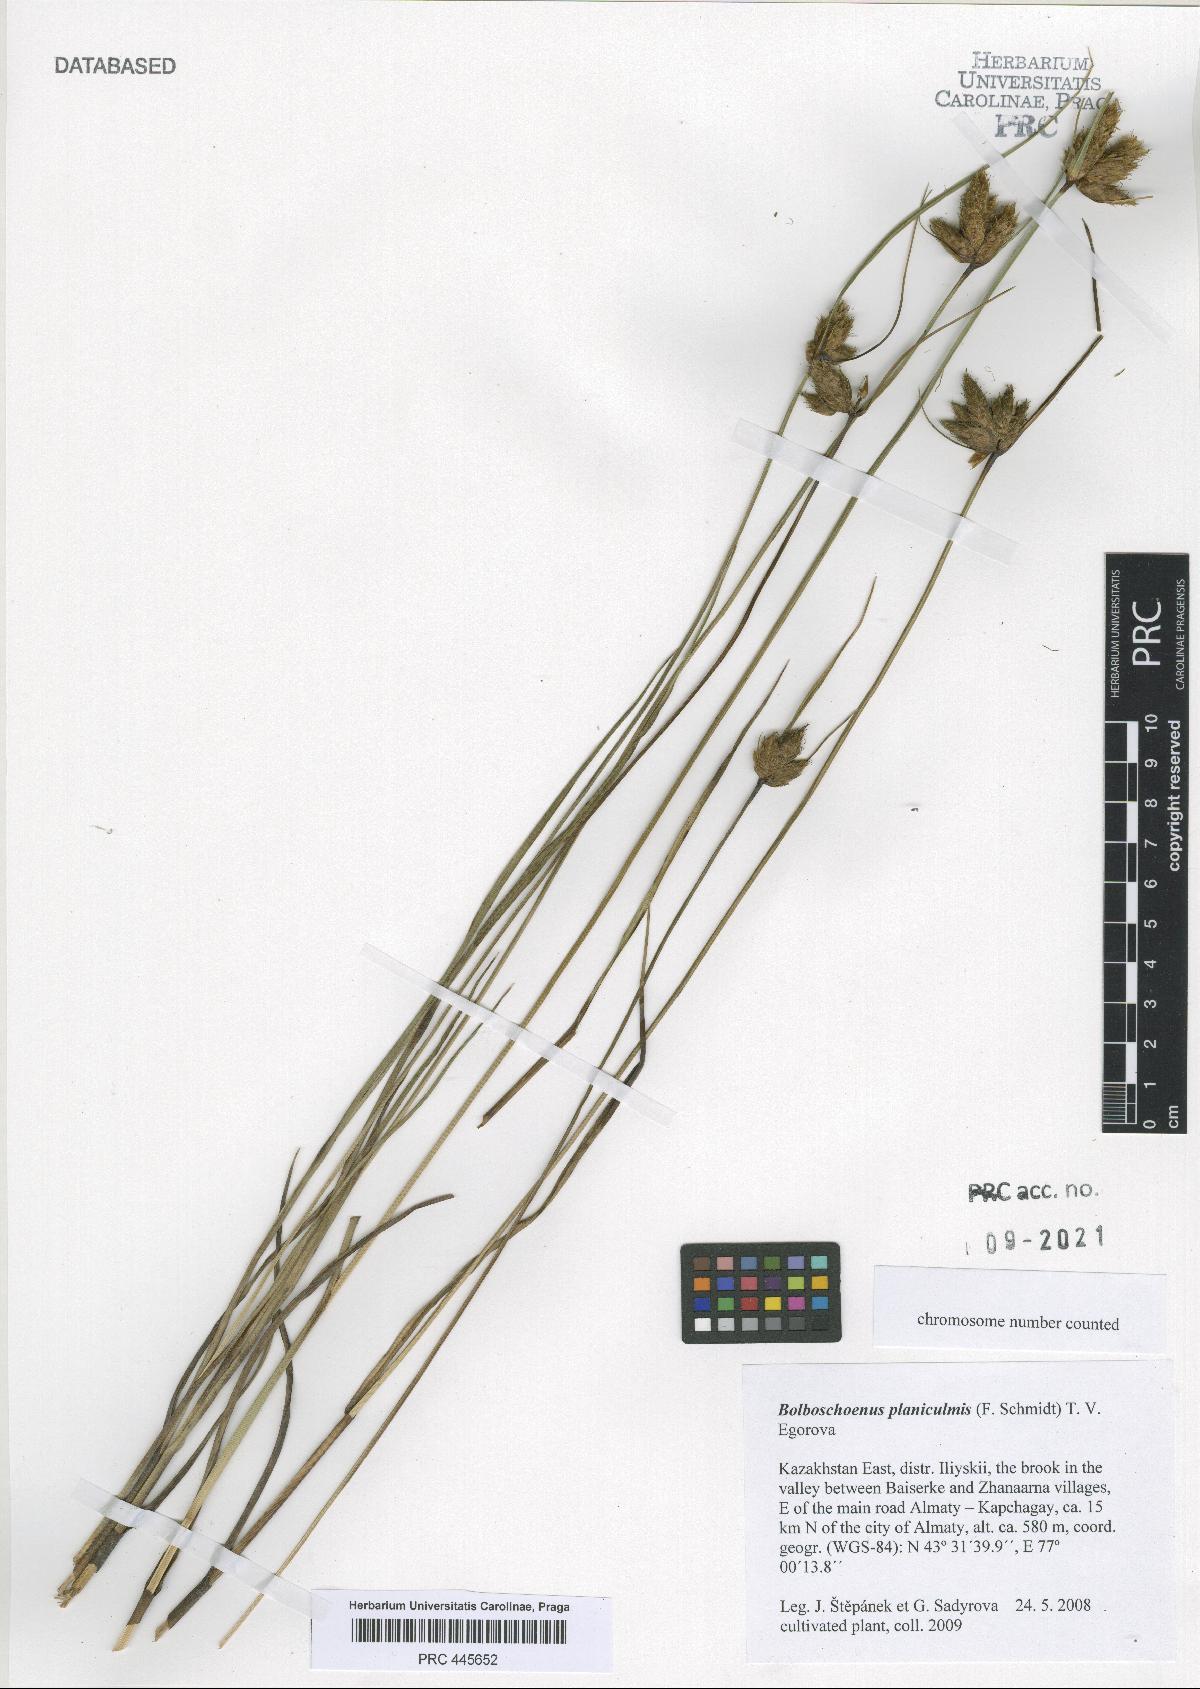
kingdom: Plantae
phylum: Tracheophyta
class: Liliopsida
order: Poales
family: Cyperaceae
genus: Bolboschoenus
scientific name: Bolboschoenus planiculmis
